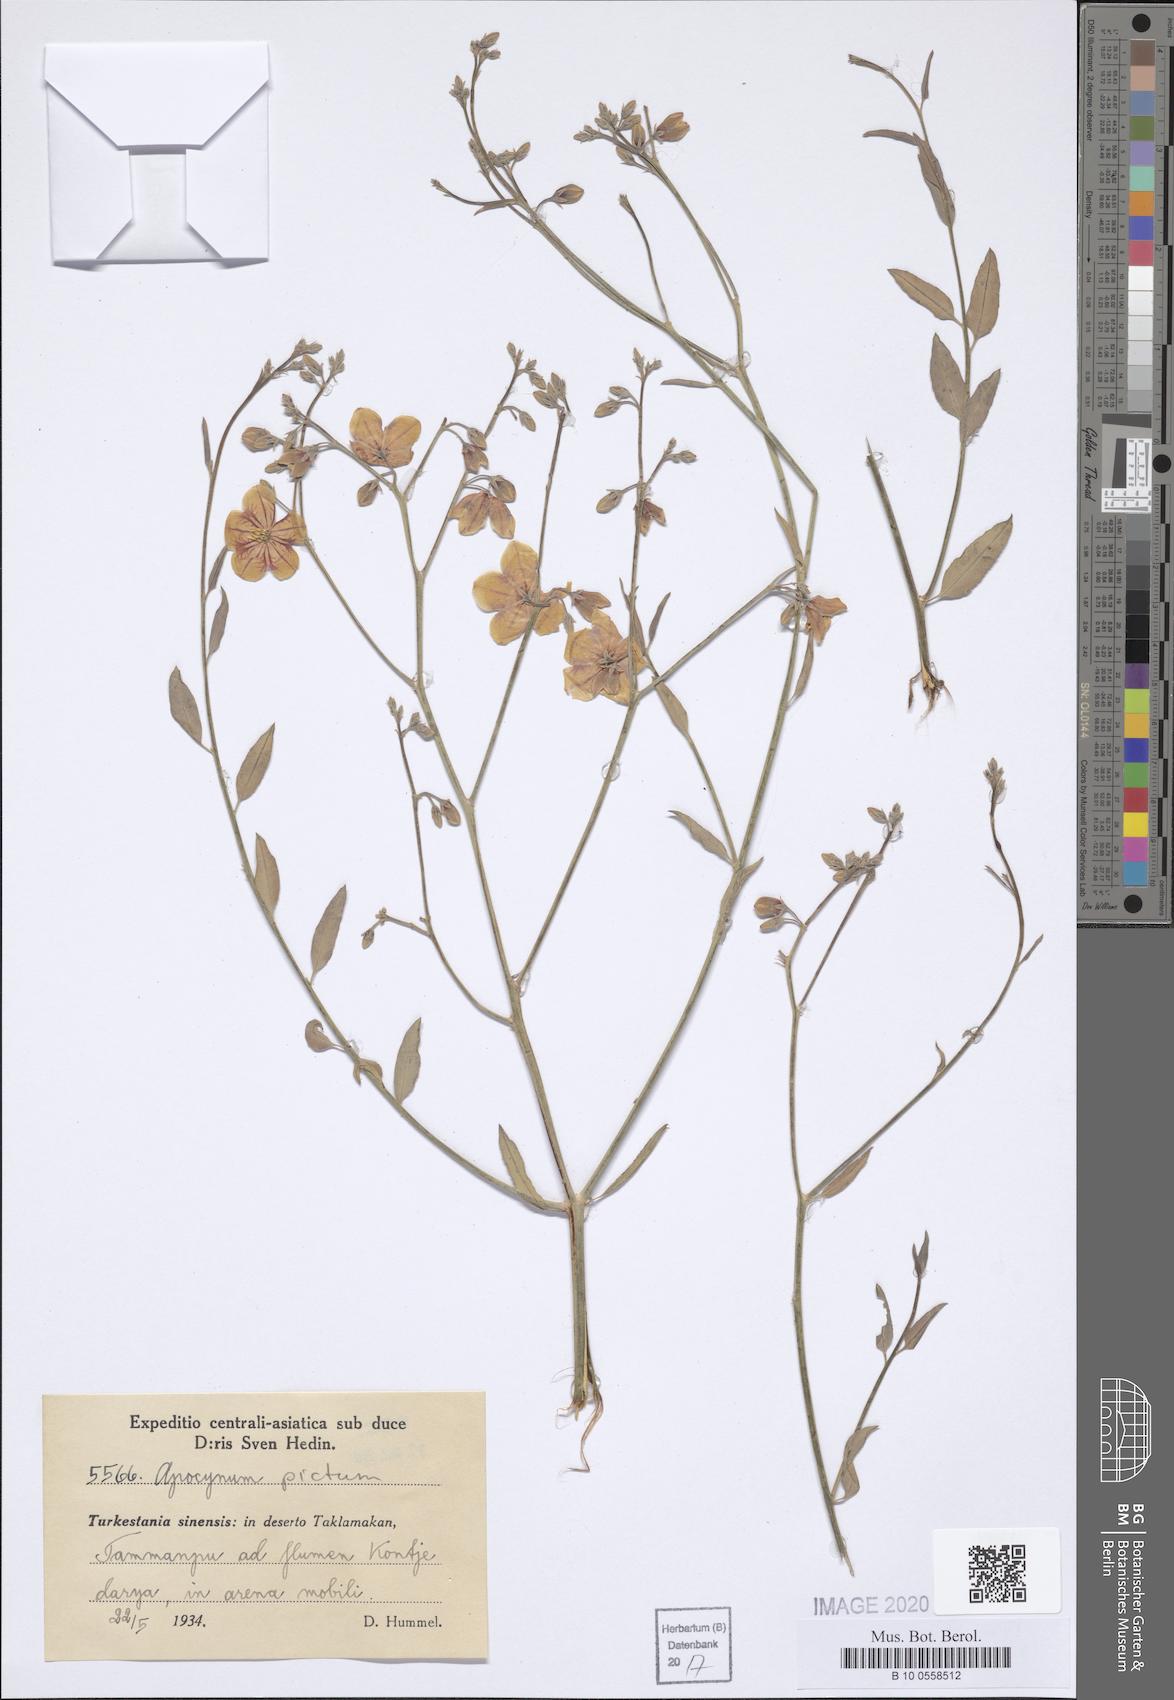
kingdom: Plantae
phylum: Tracheophyta
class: Magnoliopsida
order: Gentianales
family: Apocynaceae
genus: Poacynum
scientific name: Poacynum pictum
